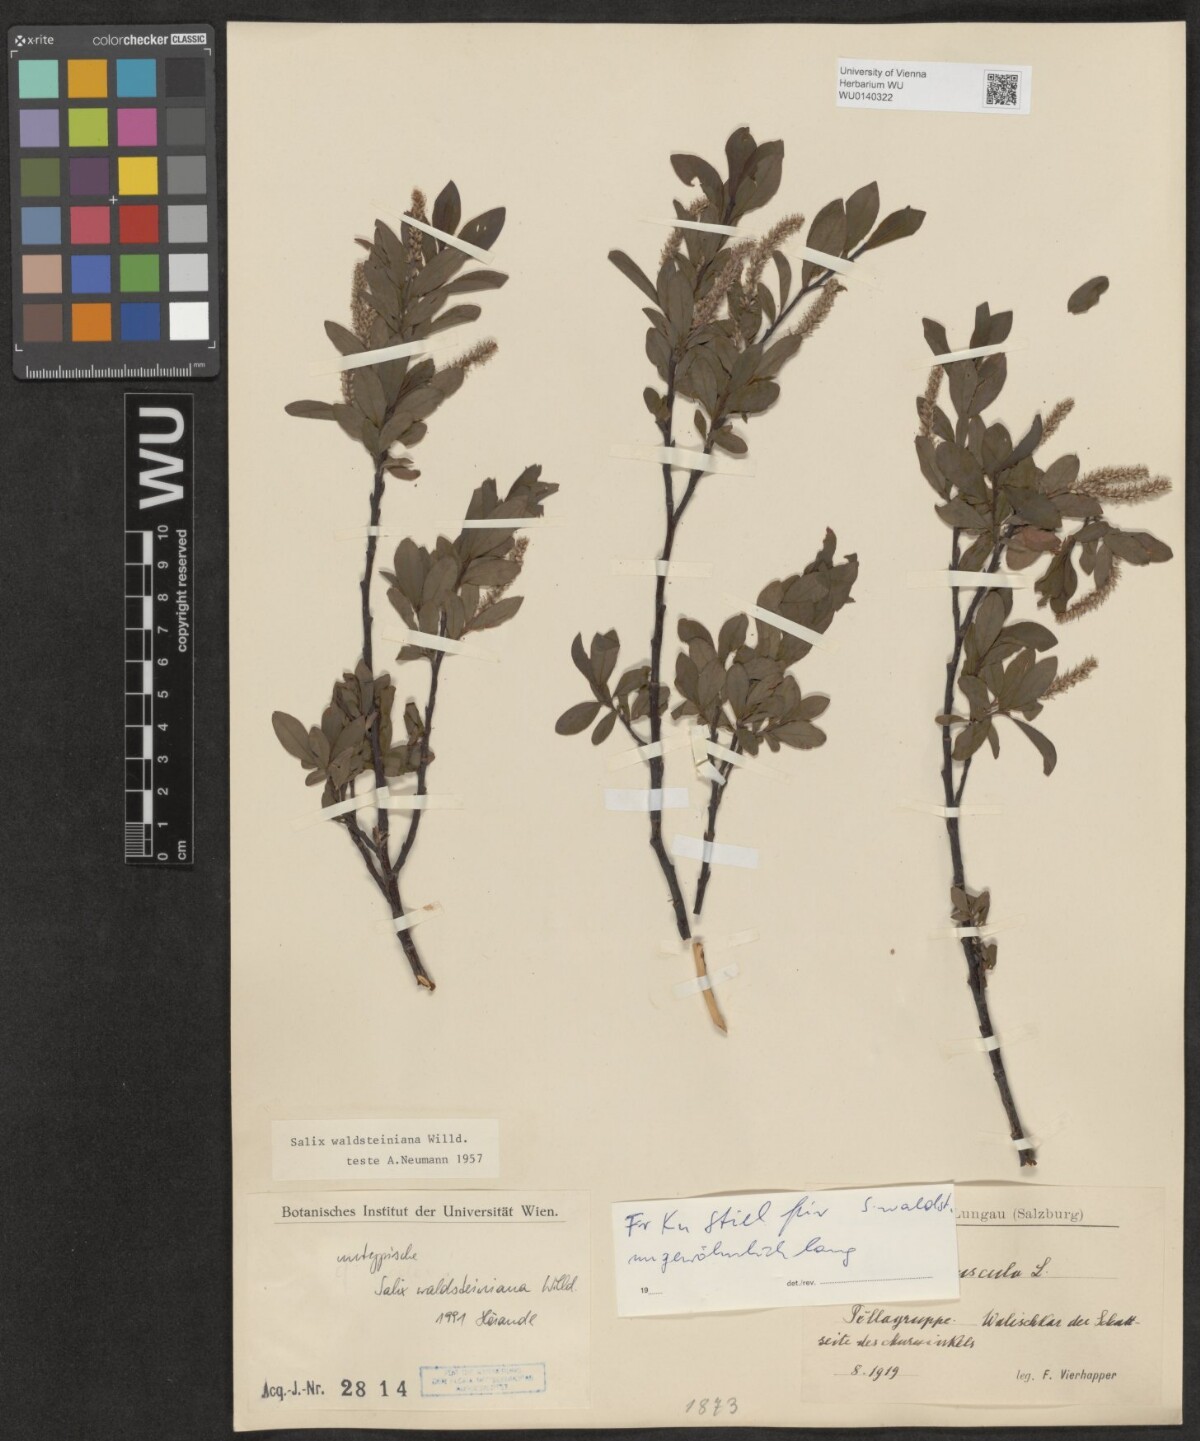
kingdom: Plantae
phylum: Tracheophyta
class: Magnoliopsida
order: Malpighiales
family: Salicaceae
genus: Salix
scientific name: Salix waldsteiniana
